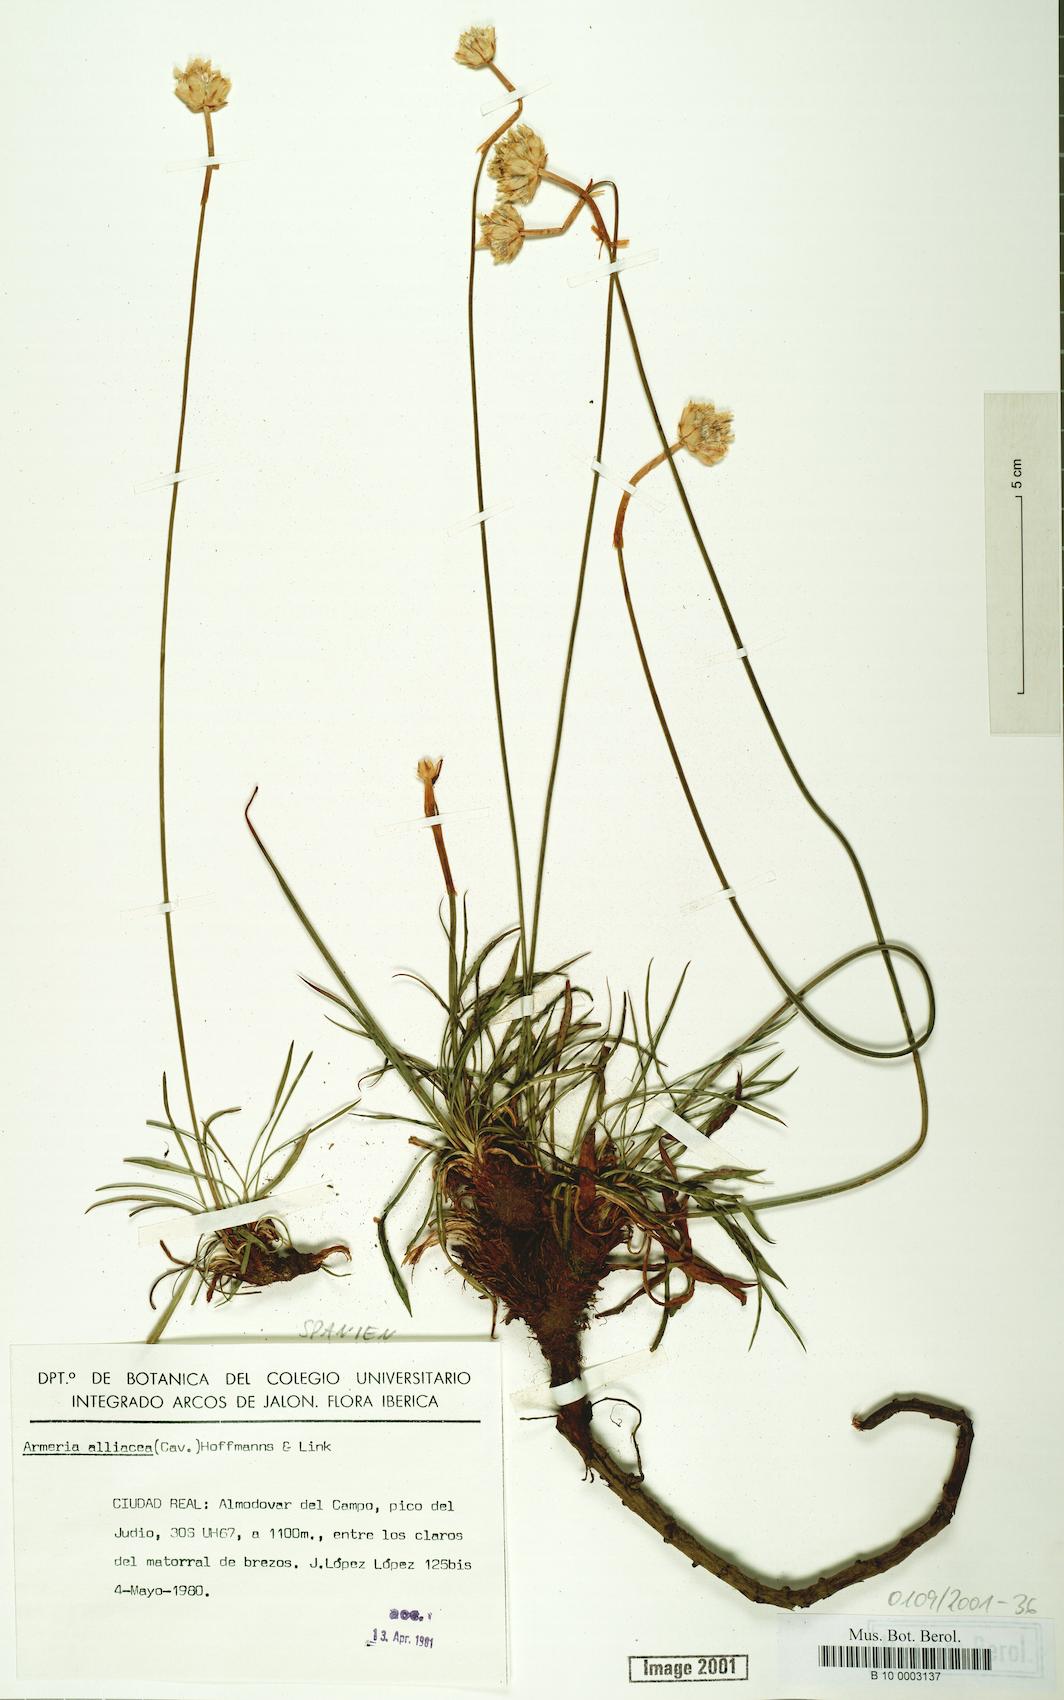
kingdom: Plantae
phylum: Tracheophyta
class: Magnoliopsida
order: Caryophyllales
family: Plumbaginaceae
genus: Armeria
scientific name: Armeria alliacea
